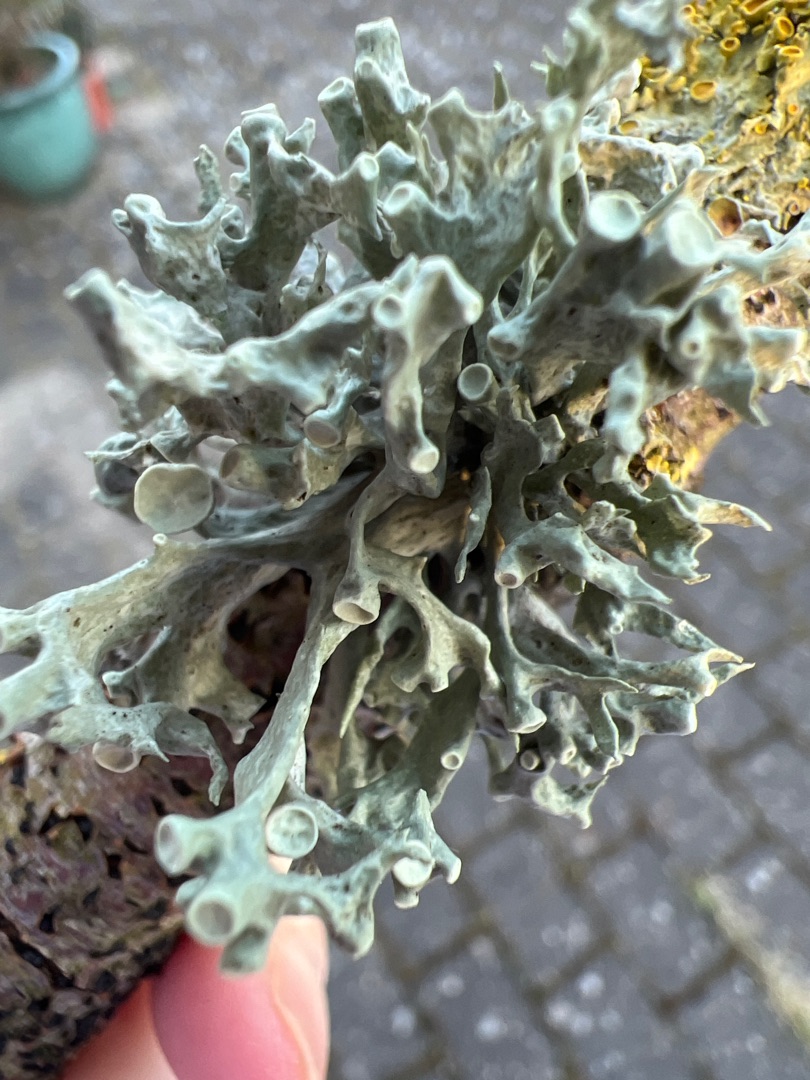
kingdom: Fungi
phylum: Ascomycota
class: Lecanoromycetes
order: Lecanorales
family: Ramalinaceae
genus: Ramalina
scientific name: Ramalina fastigiata
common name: Tue-grenlav
